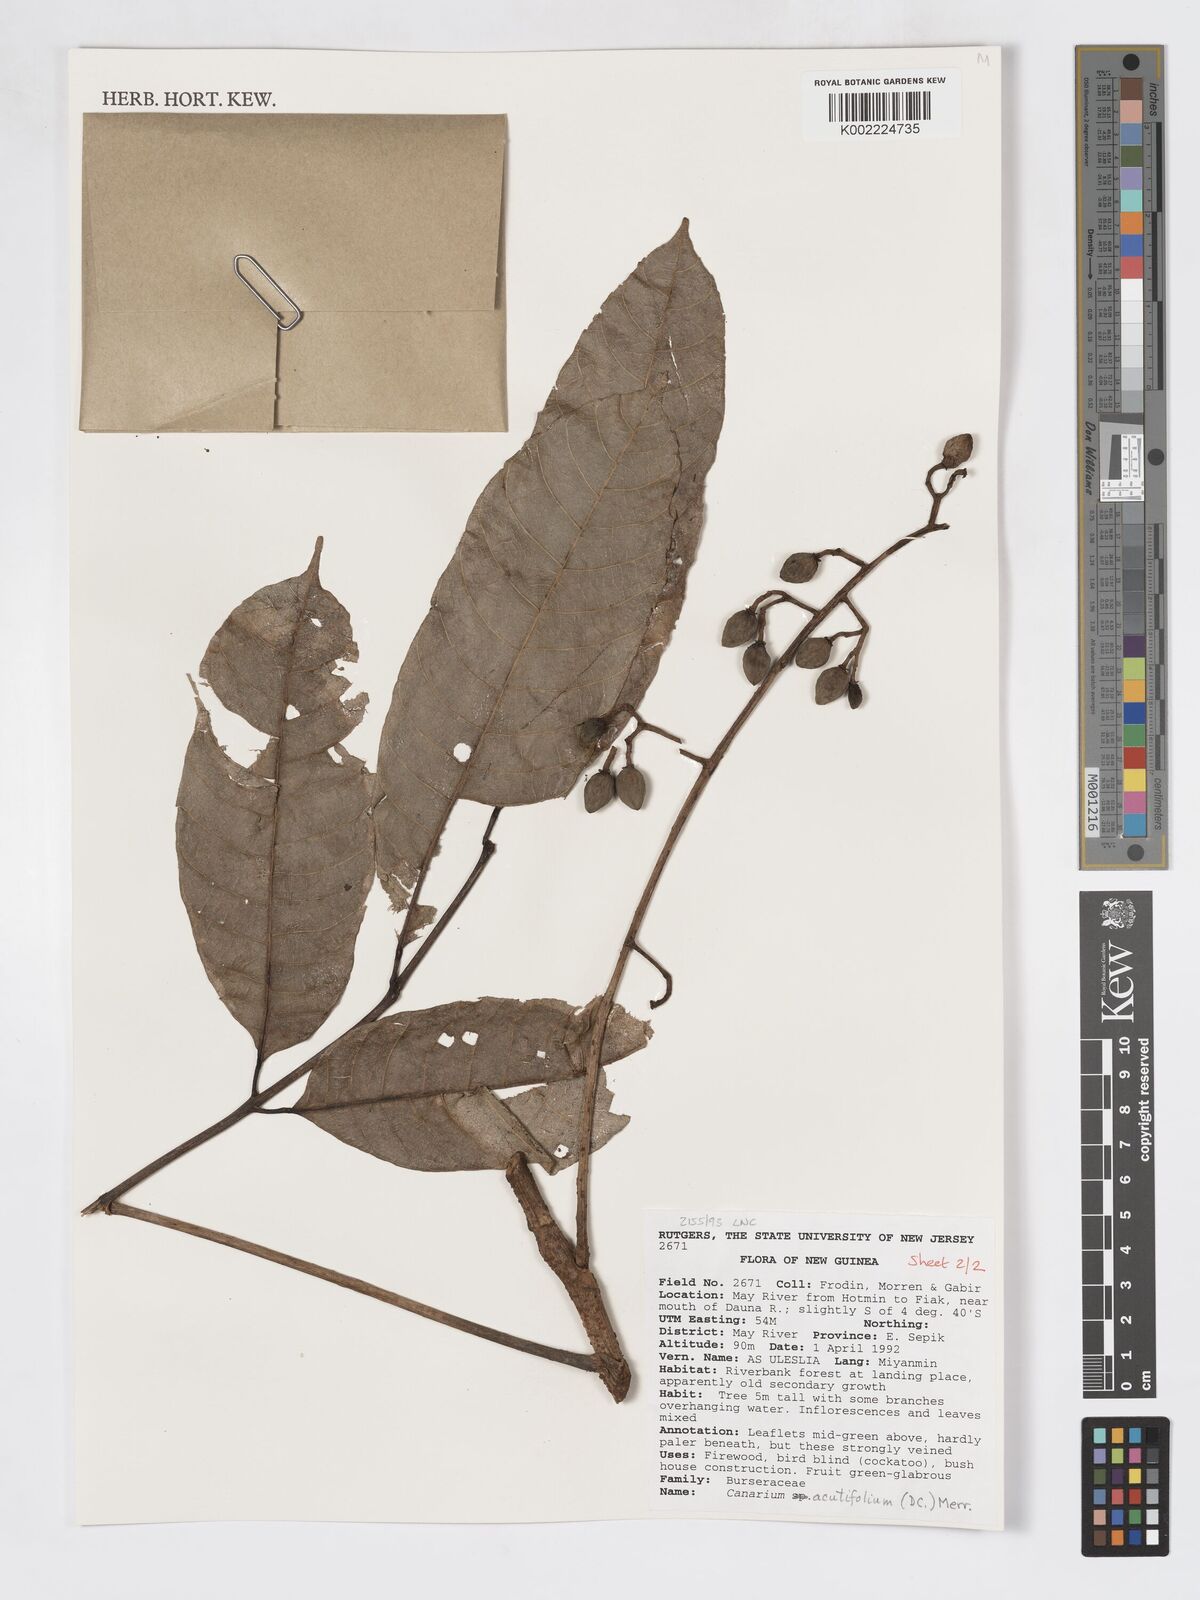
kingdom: Plantae
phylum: Tracheophyta
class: Magnoliopsida
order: Sapindales
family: Burseraceae
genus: Canarium
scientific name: Canarium acutifolium
